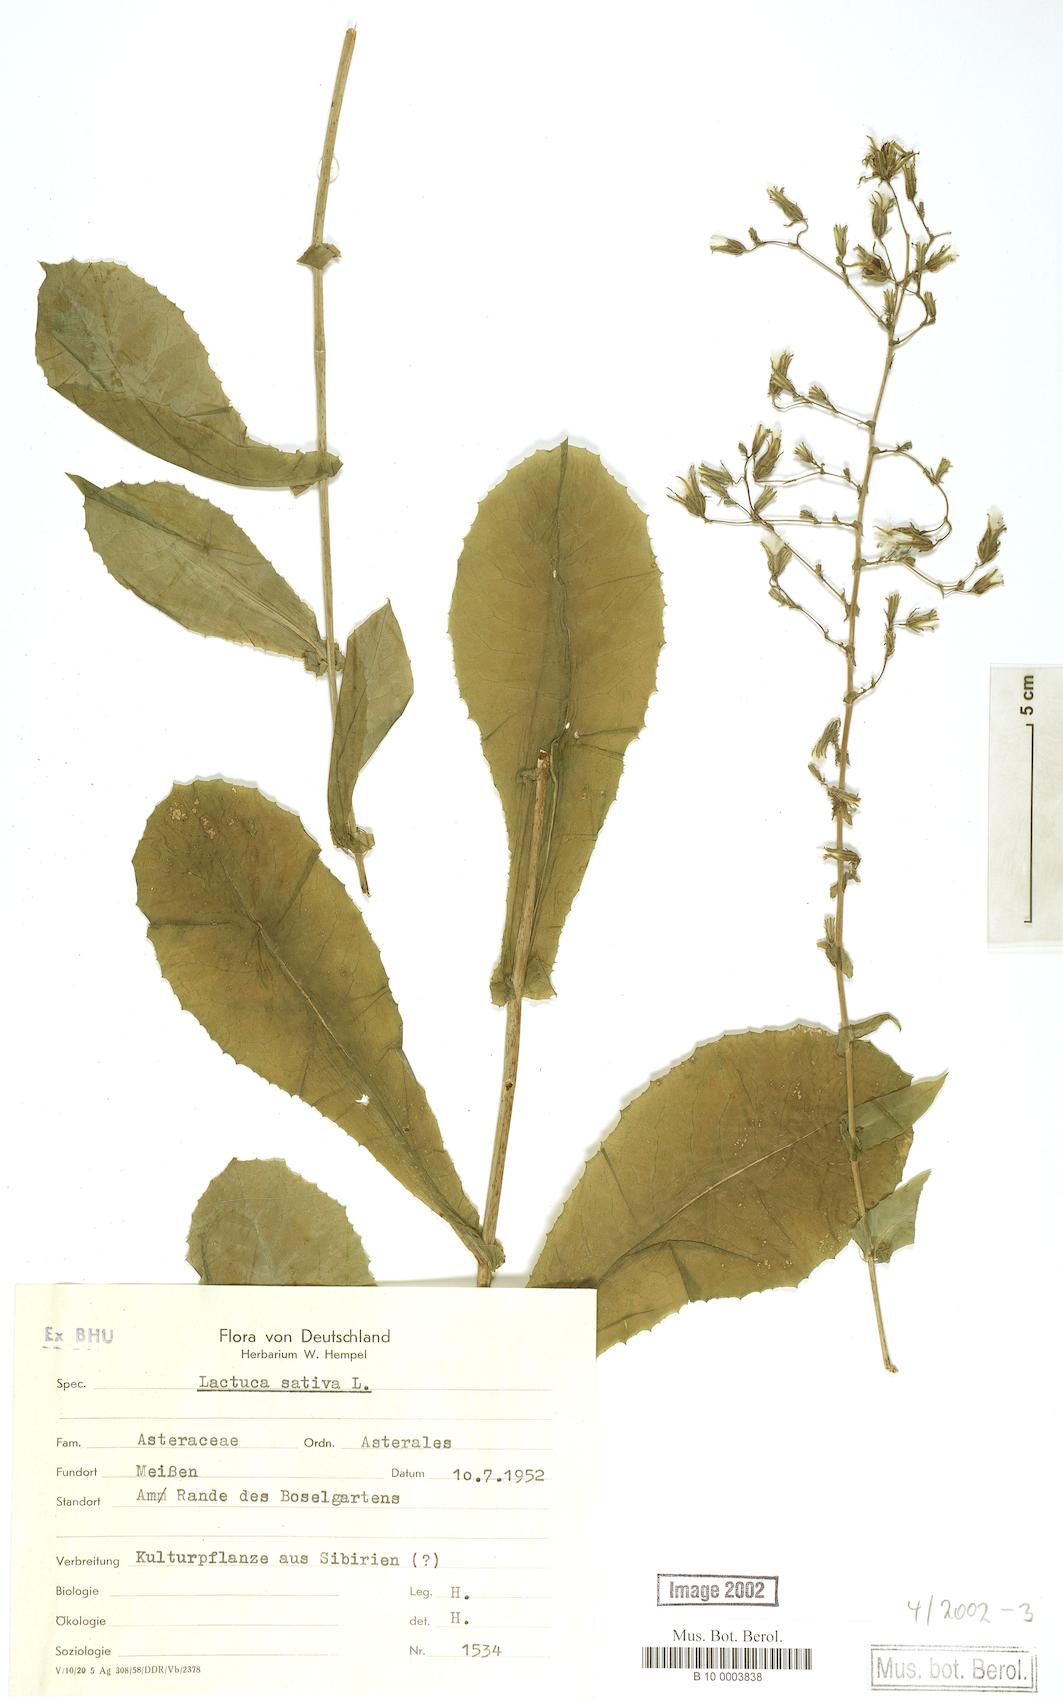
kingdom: Plantae
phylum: Tracheophyta
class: Magnoliopsida
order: Asterales
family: Asteraceae
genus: Lactuca
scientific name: Lactuca sativa
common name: Garden lettuce
